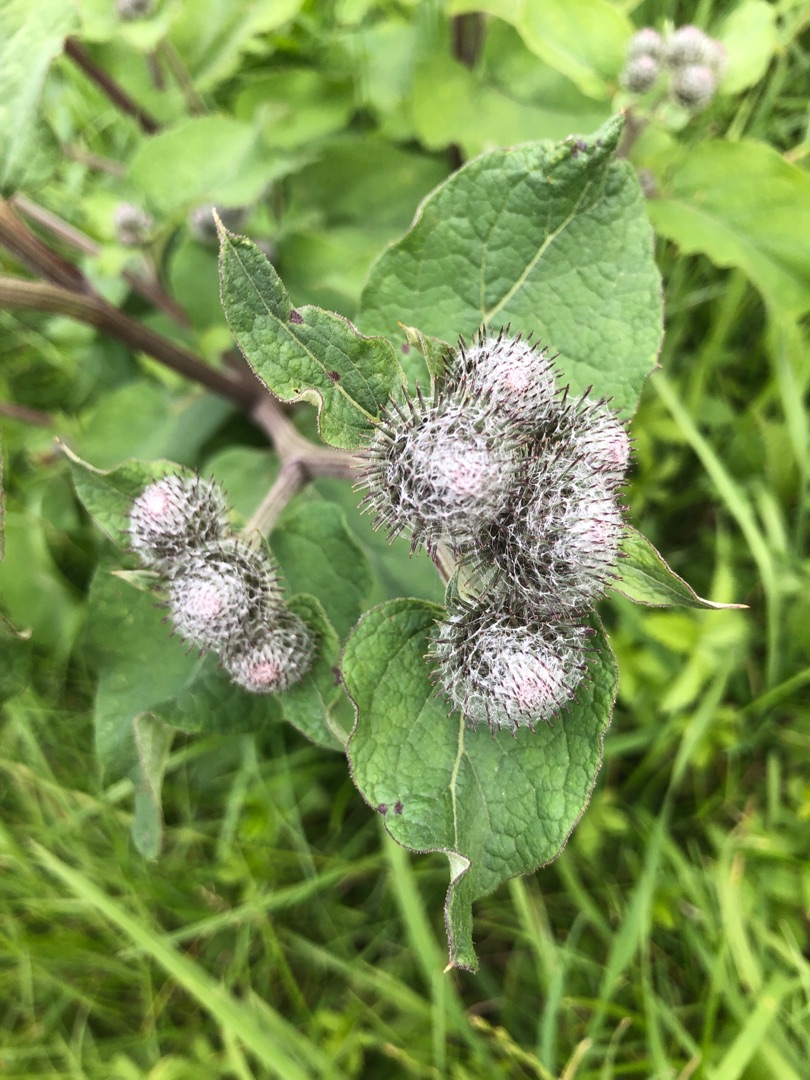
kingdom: Plantae
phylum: Tracheophyta
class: Magnoliopsida
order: Asterales
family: Asteraceae
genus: Arctium
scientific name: Arctium tomentosum
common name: Filtet burre
